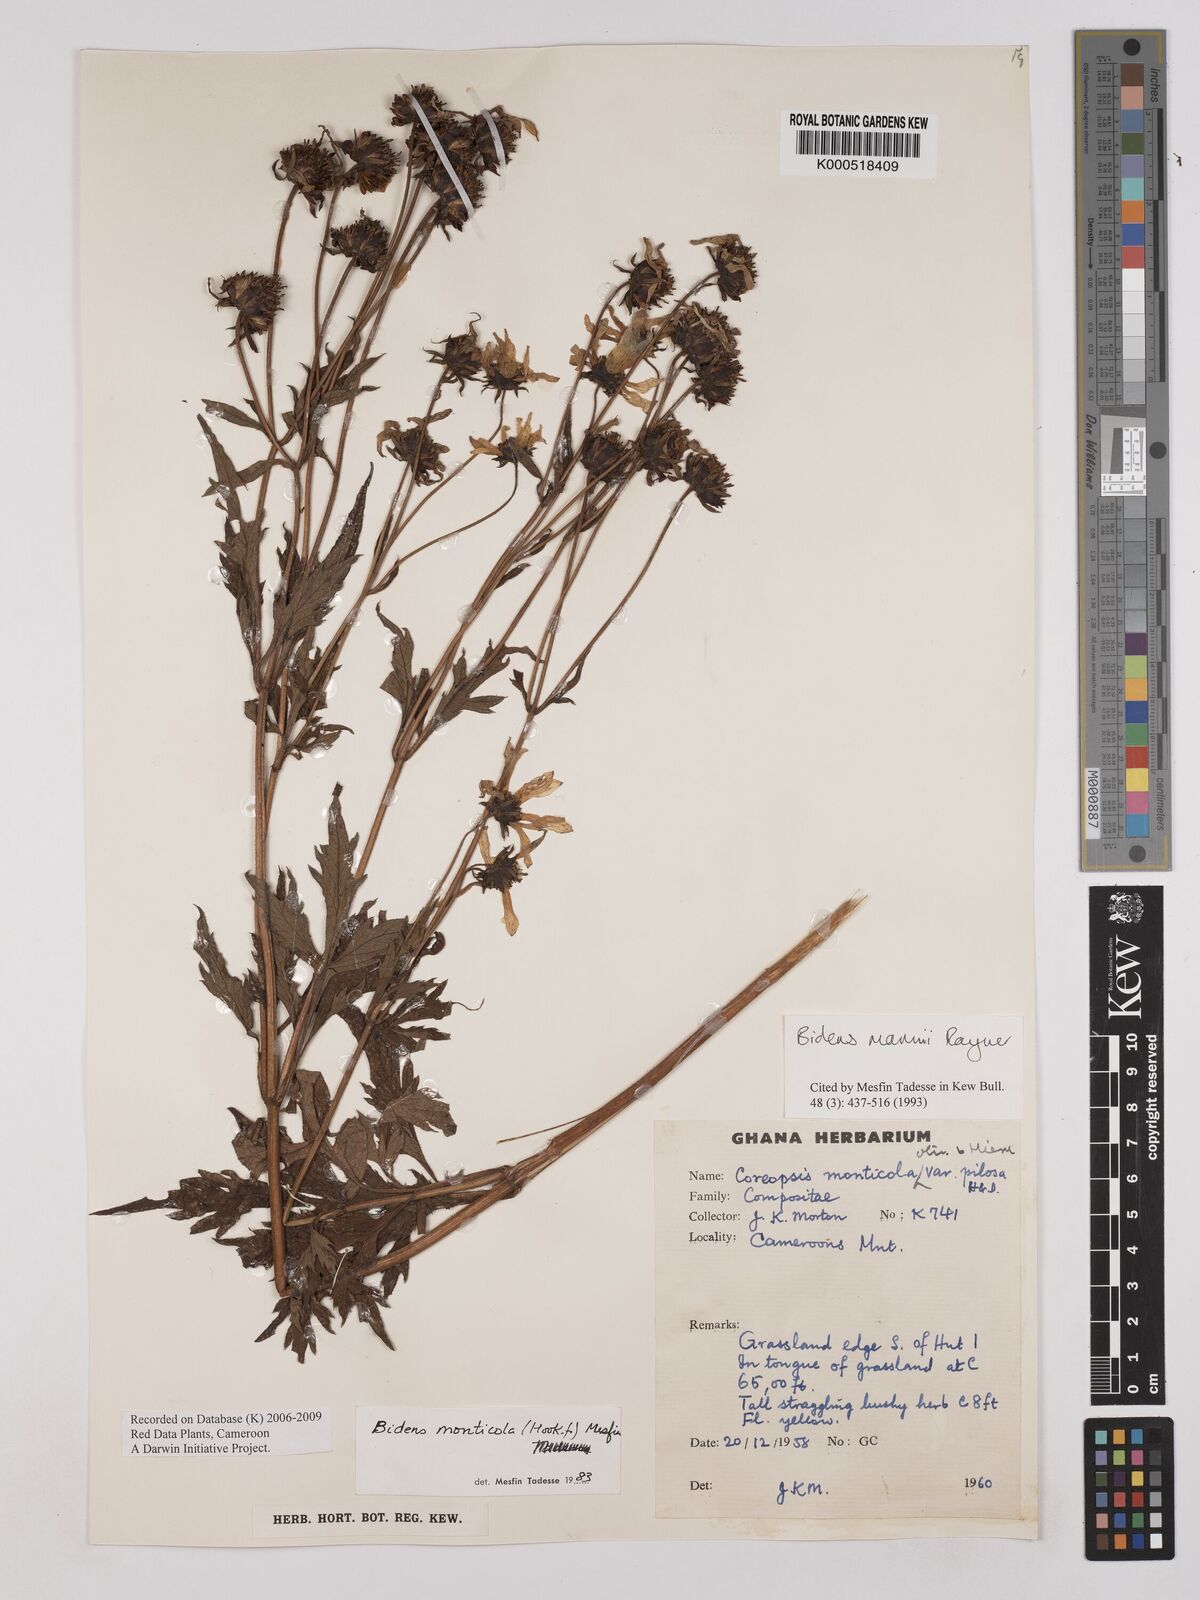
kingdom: Plantae
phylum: Tracheophyta
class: Magnoliopsida
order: Asterales
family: Asteraceae
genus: Bidens
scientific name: Bidens mannii
